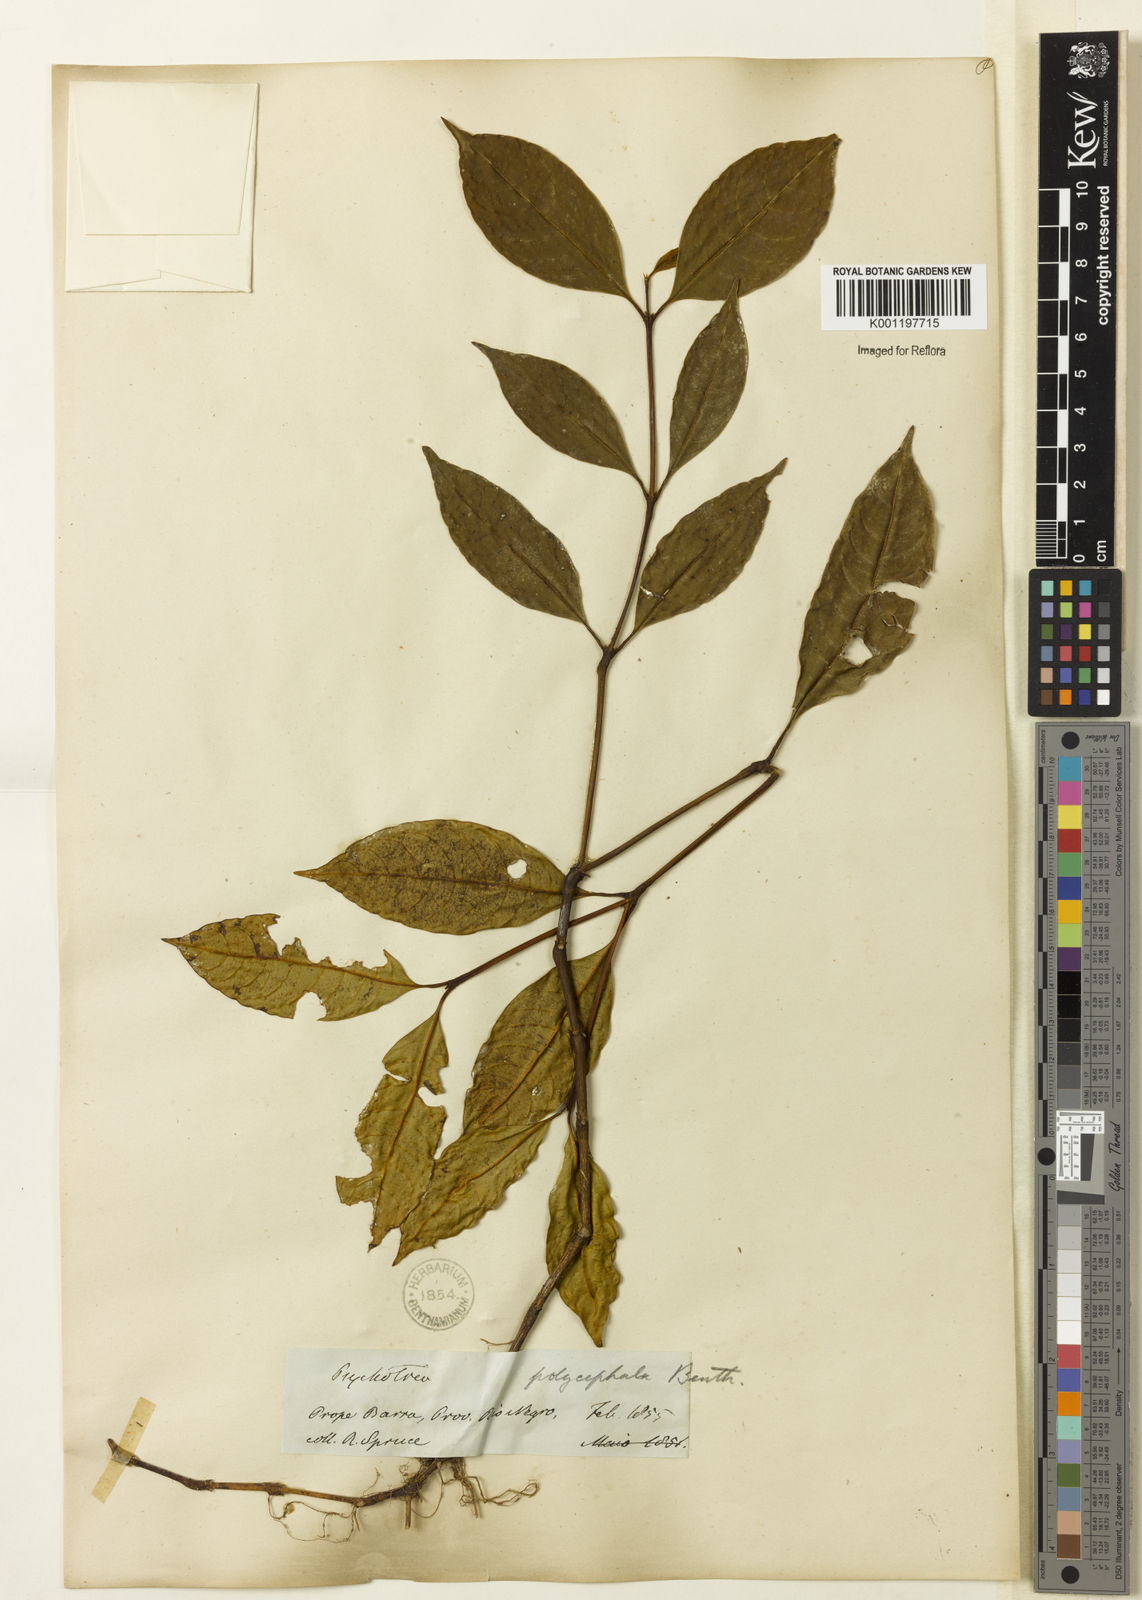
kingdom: Plantae
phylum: Tracheophyta
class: Magnoliopsida
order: Gentianales
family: Rubiaceae
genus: Palicourea
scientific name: Palicourea polycephala
